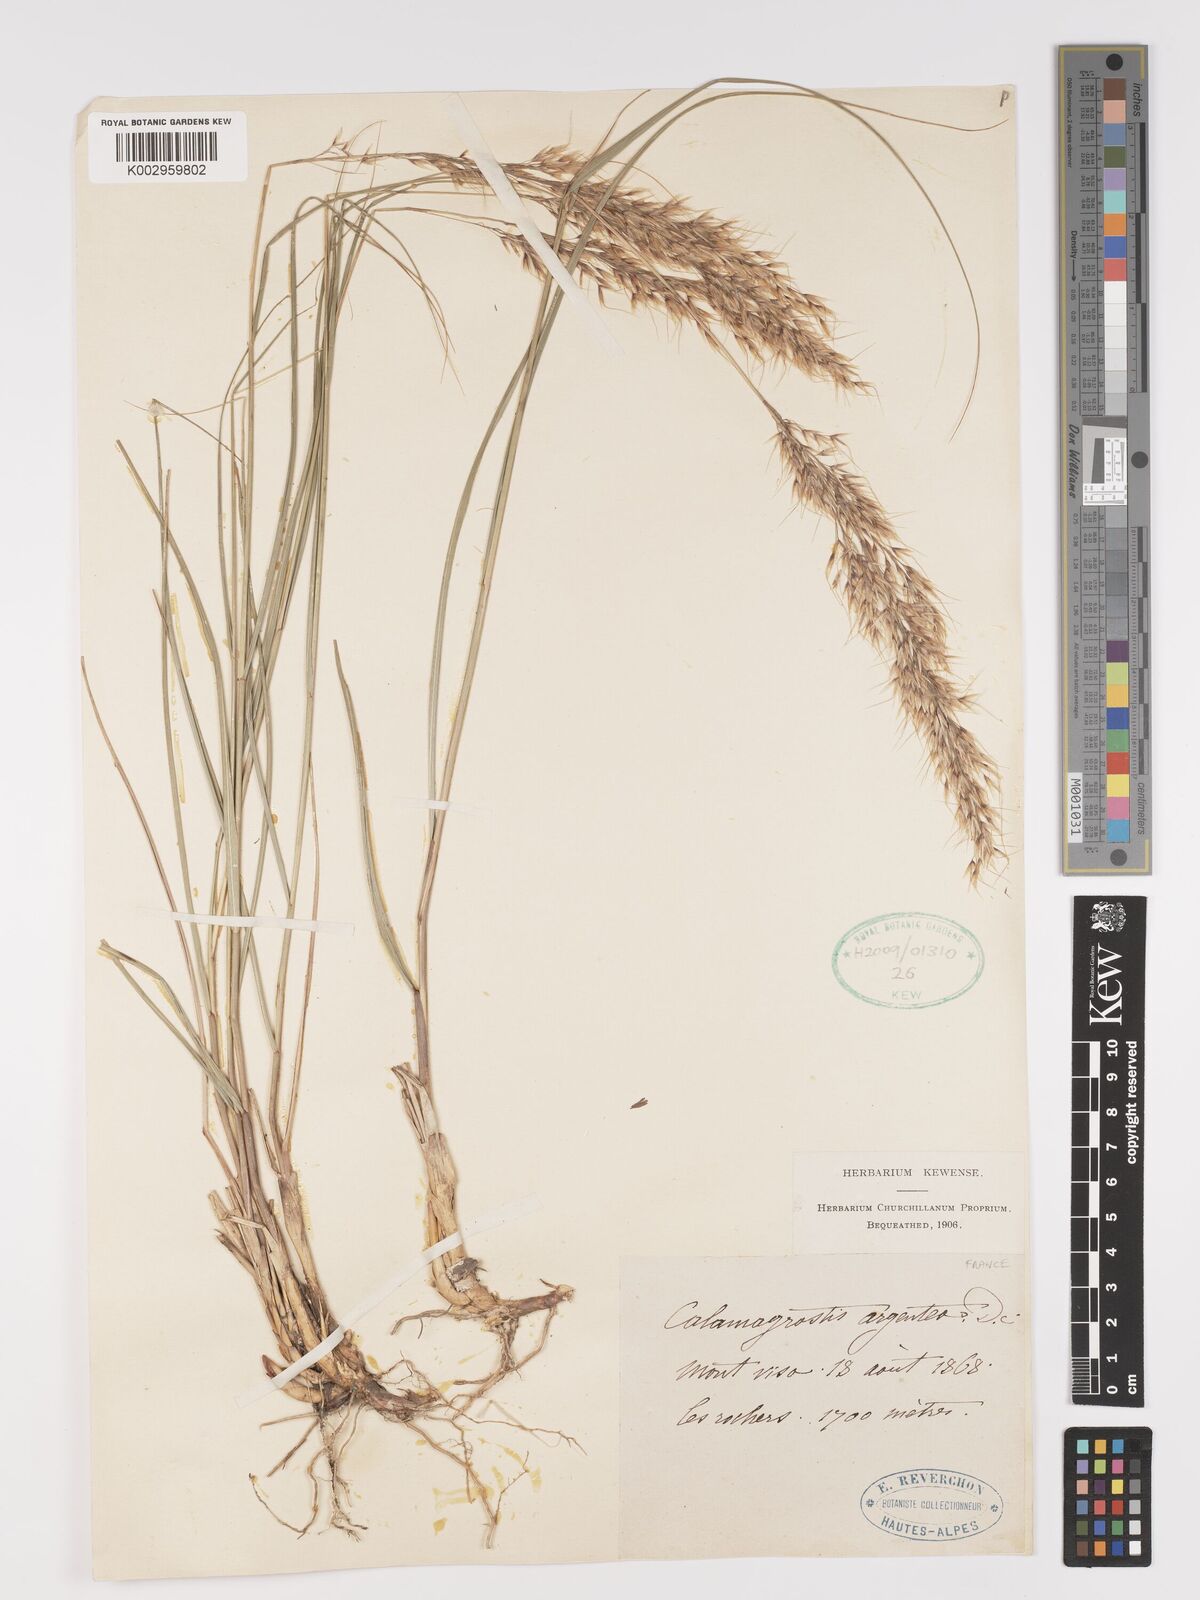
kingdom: Plantae
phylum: Tracheophyta
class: Liliopsida
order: Poales
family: Poaceae
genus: Achnatherum
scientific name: Achnatherum calamagrostis
